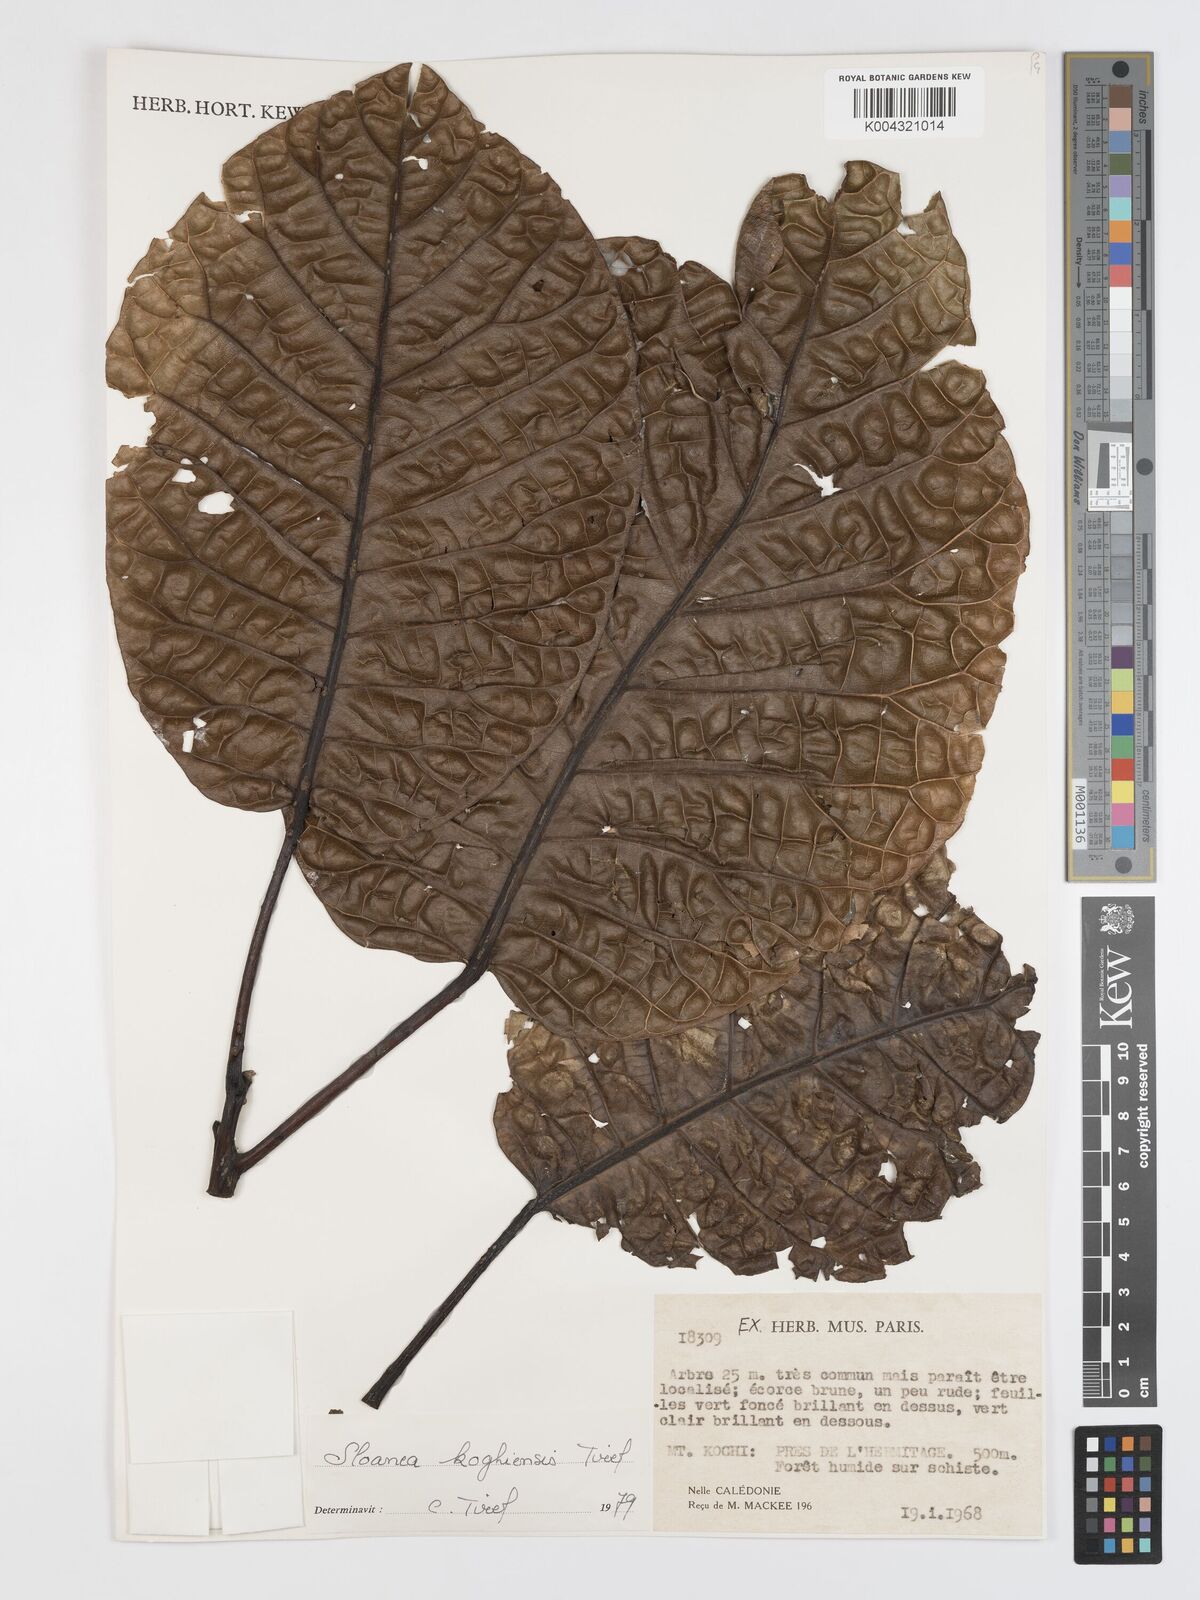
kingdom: Plantae
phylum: Tracheophyta
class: Magnoliopsida
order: Oxalidales
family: Elaeocarpaceae
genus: Sloanea
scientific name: Sloanea koghiensis
